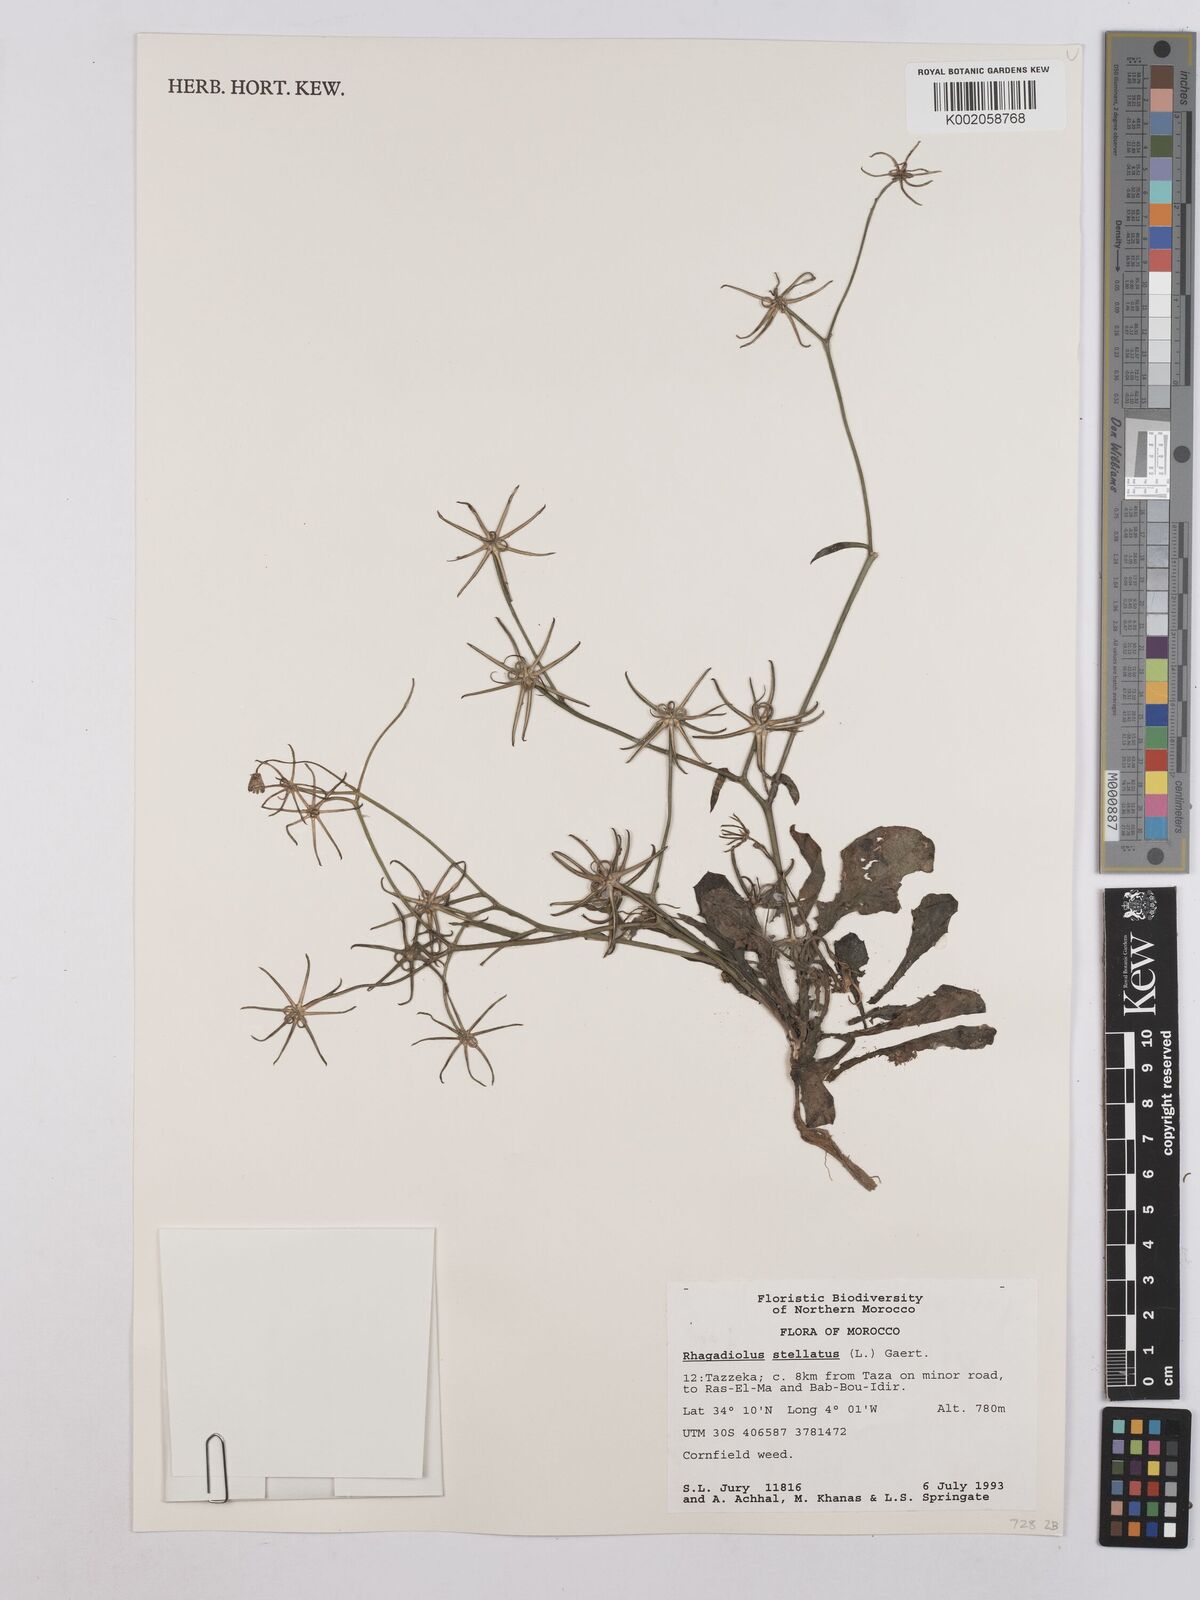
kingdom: Plantae
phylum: Tracheophyta
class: Magnoliopsida
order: Asterales
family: Asteraceae
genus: Rhagadiolus
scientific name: Rhagadiolus stellatus
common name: Star hawkbit
